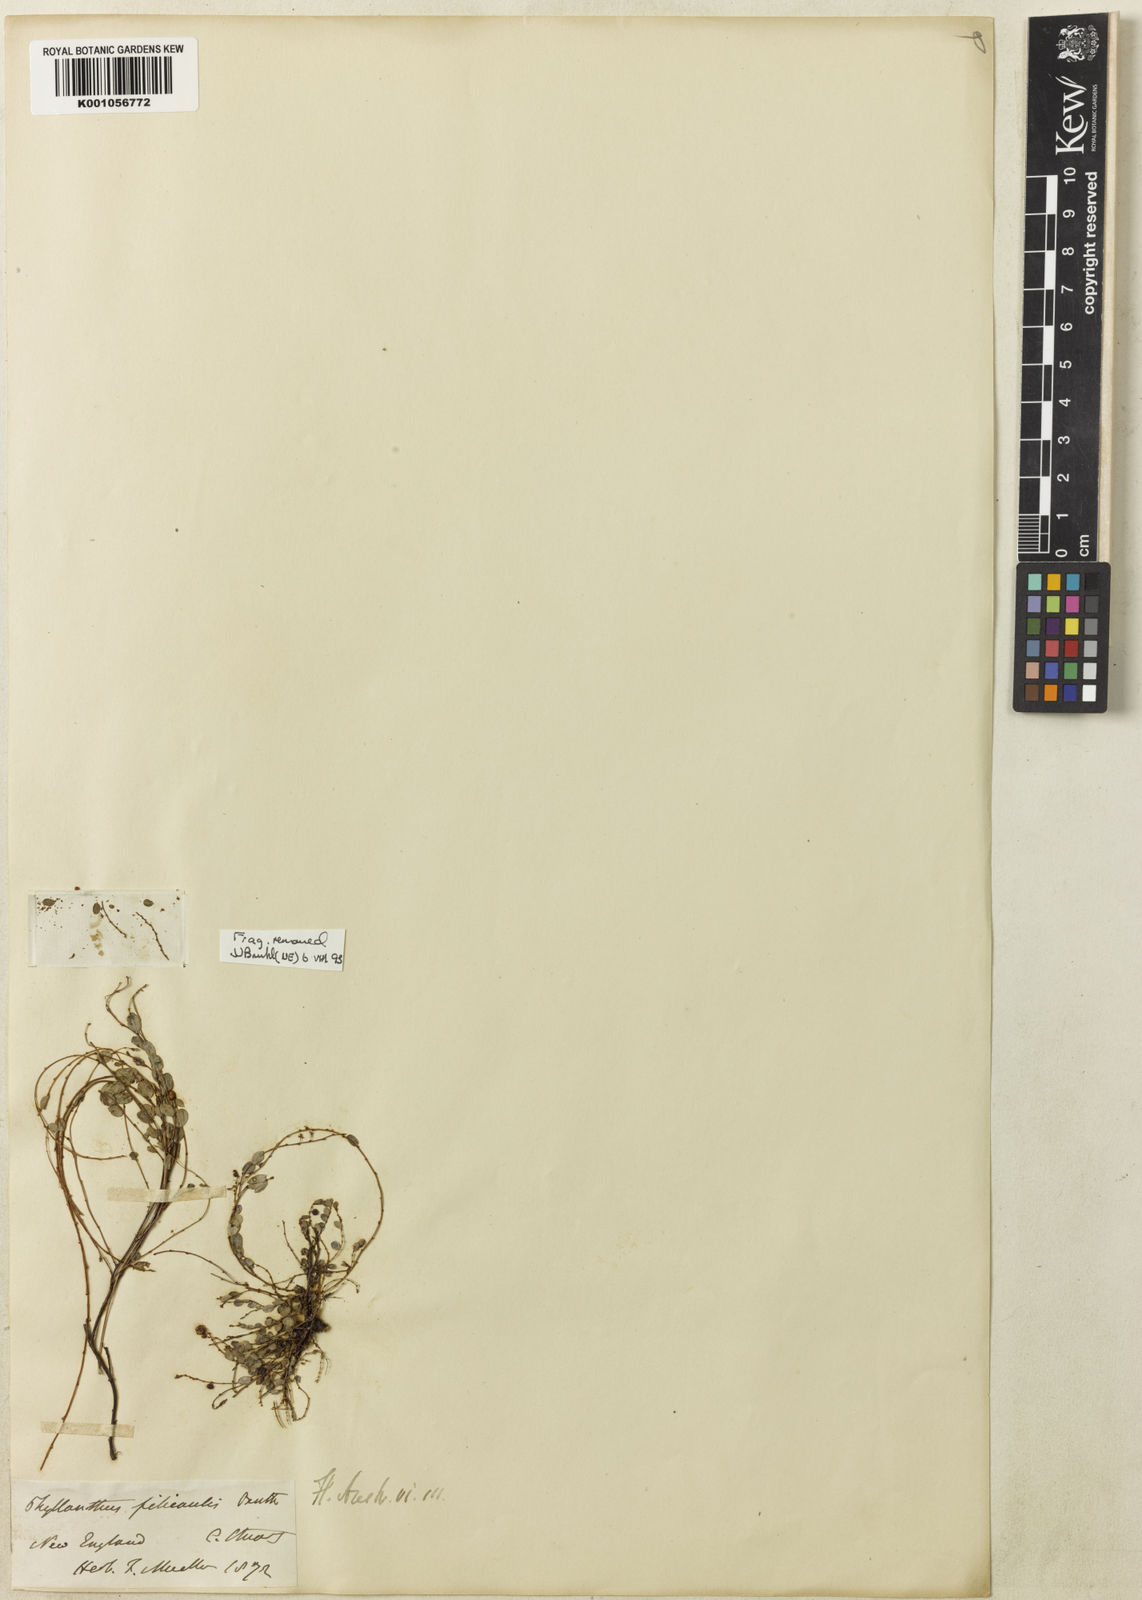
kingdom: Plantae
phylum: Tracheophyta
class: Magnoliopsida
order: Malpighiales
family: Phyllanthaceae
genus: Phyllanthus
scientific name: Phyllanthus virgatus
